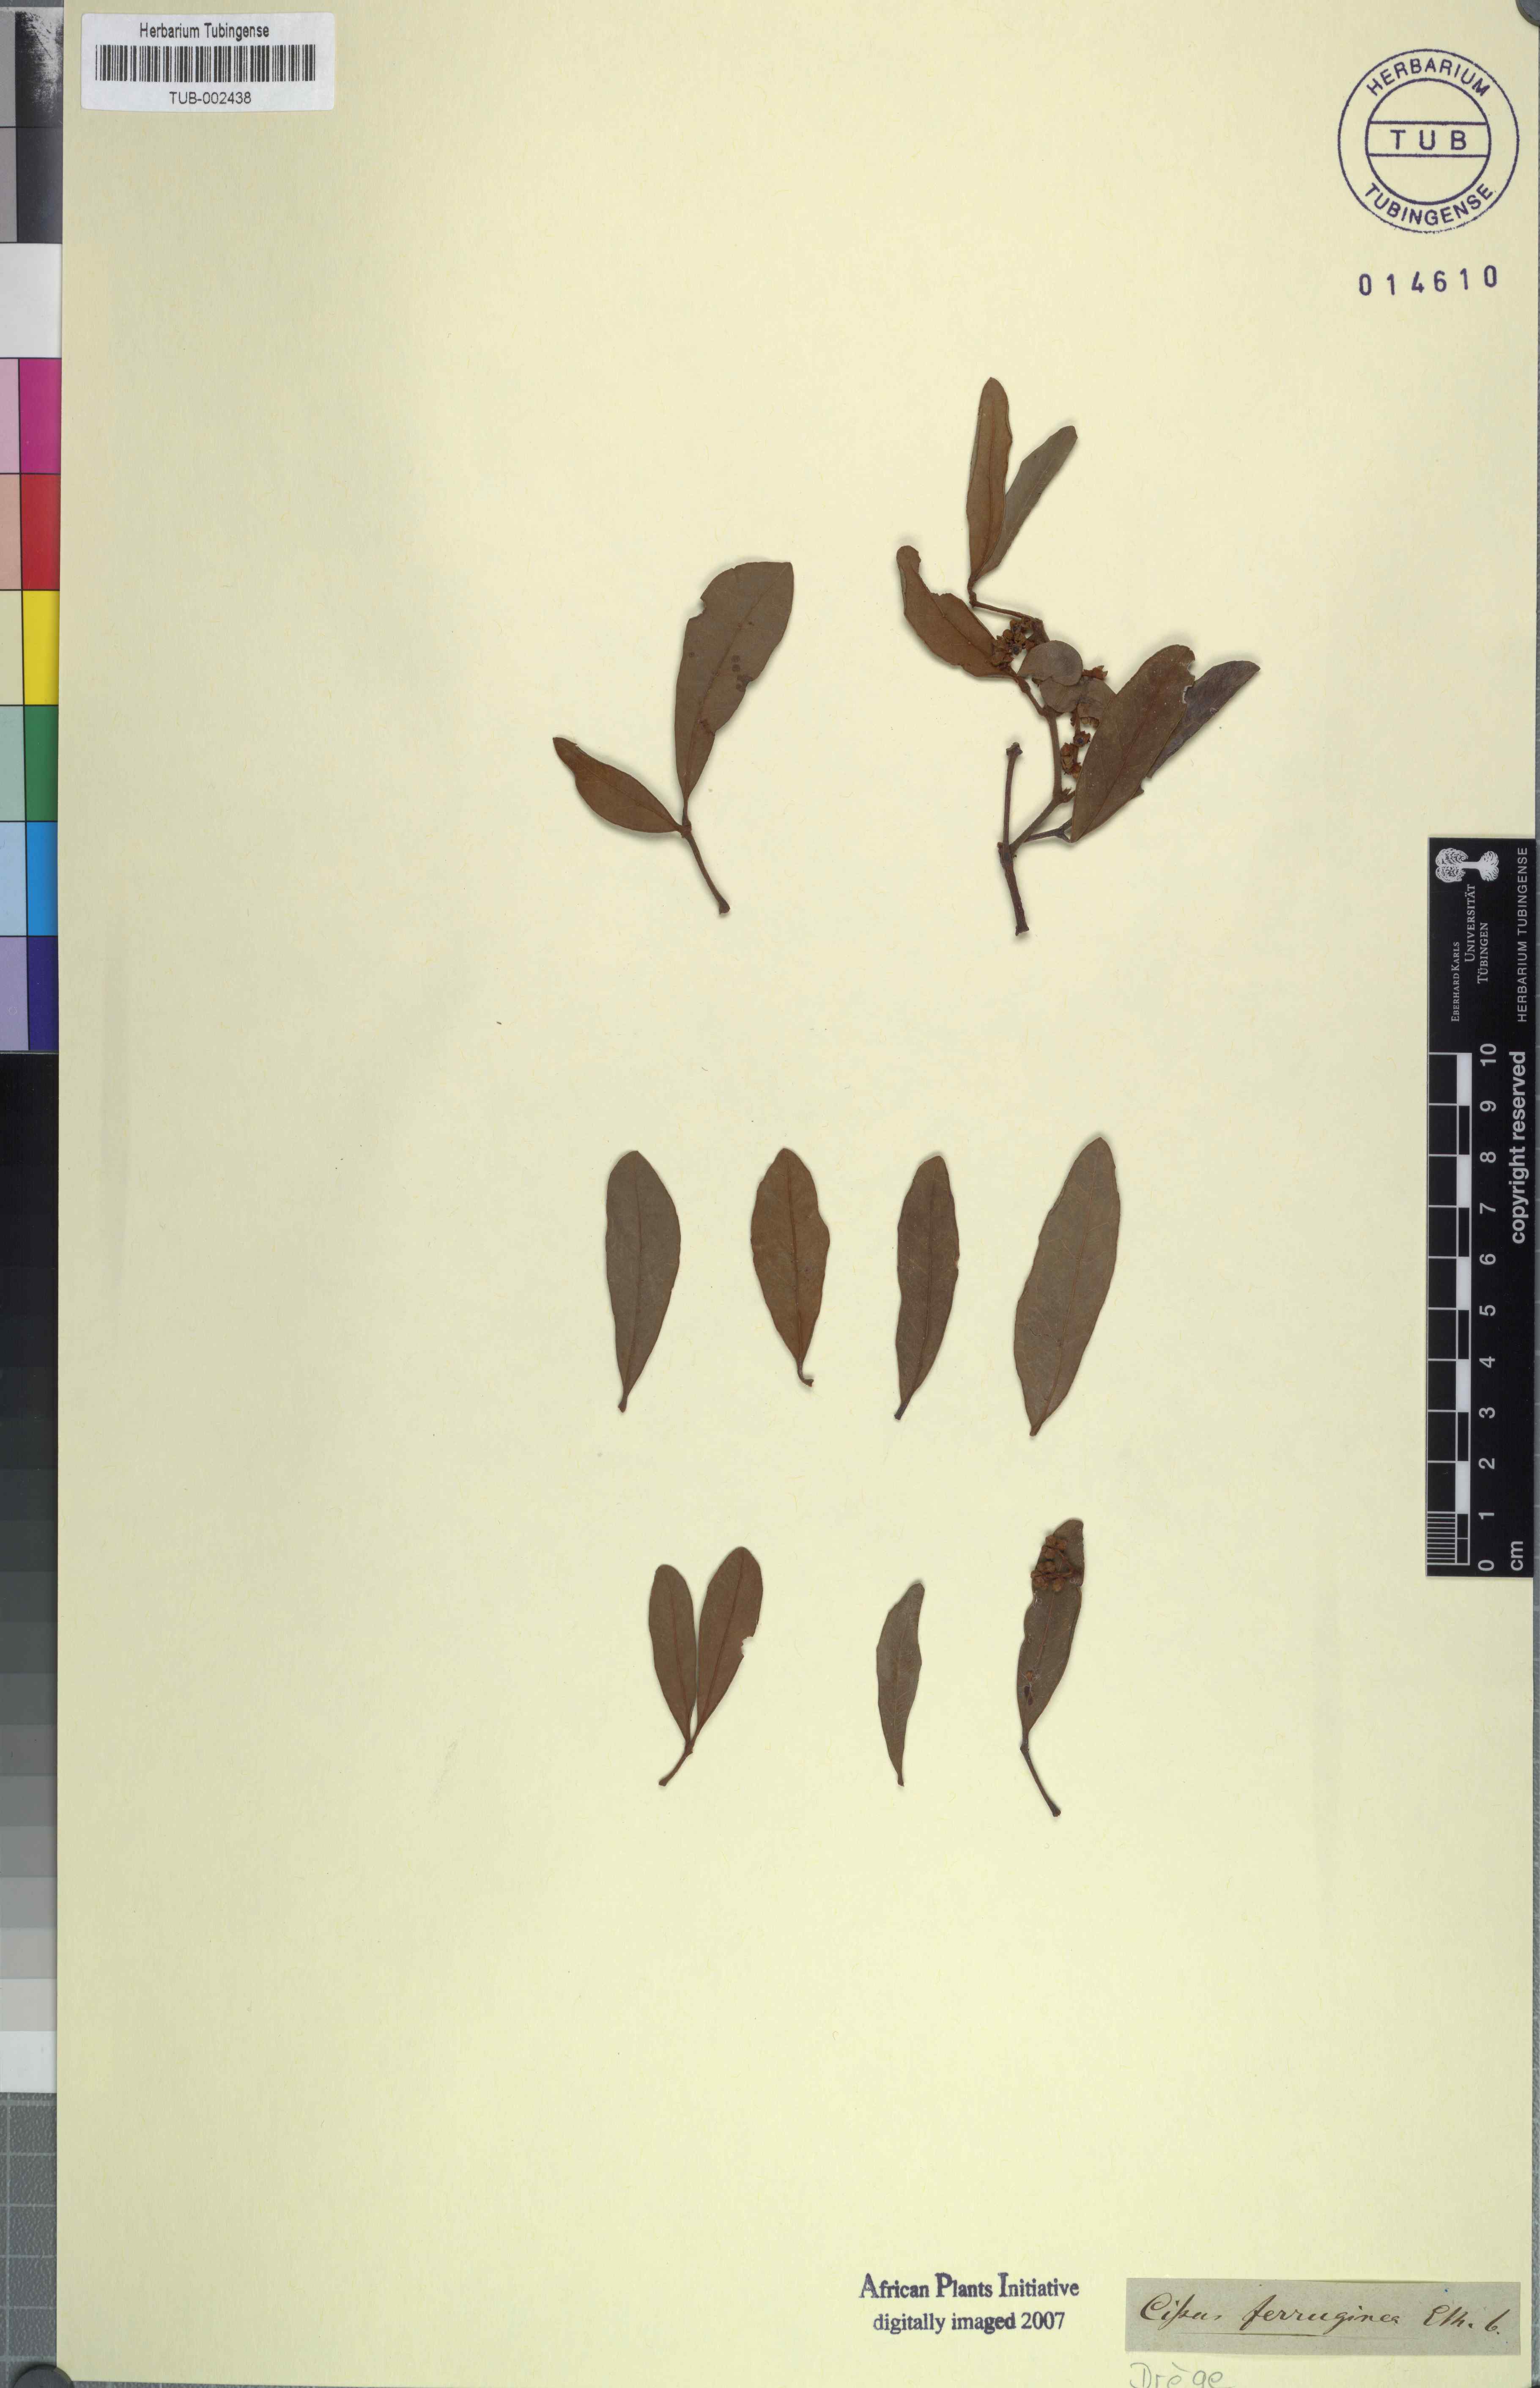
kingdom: Plantae
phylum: Tracheophyta
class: Magnoliopsida
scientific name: Magnoliopsida
